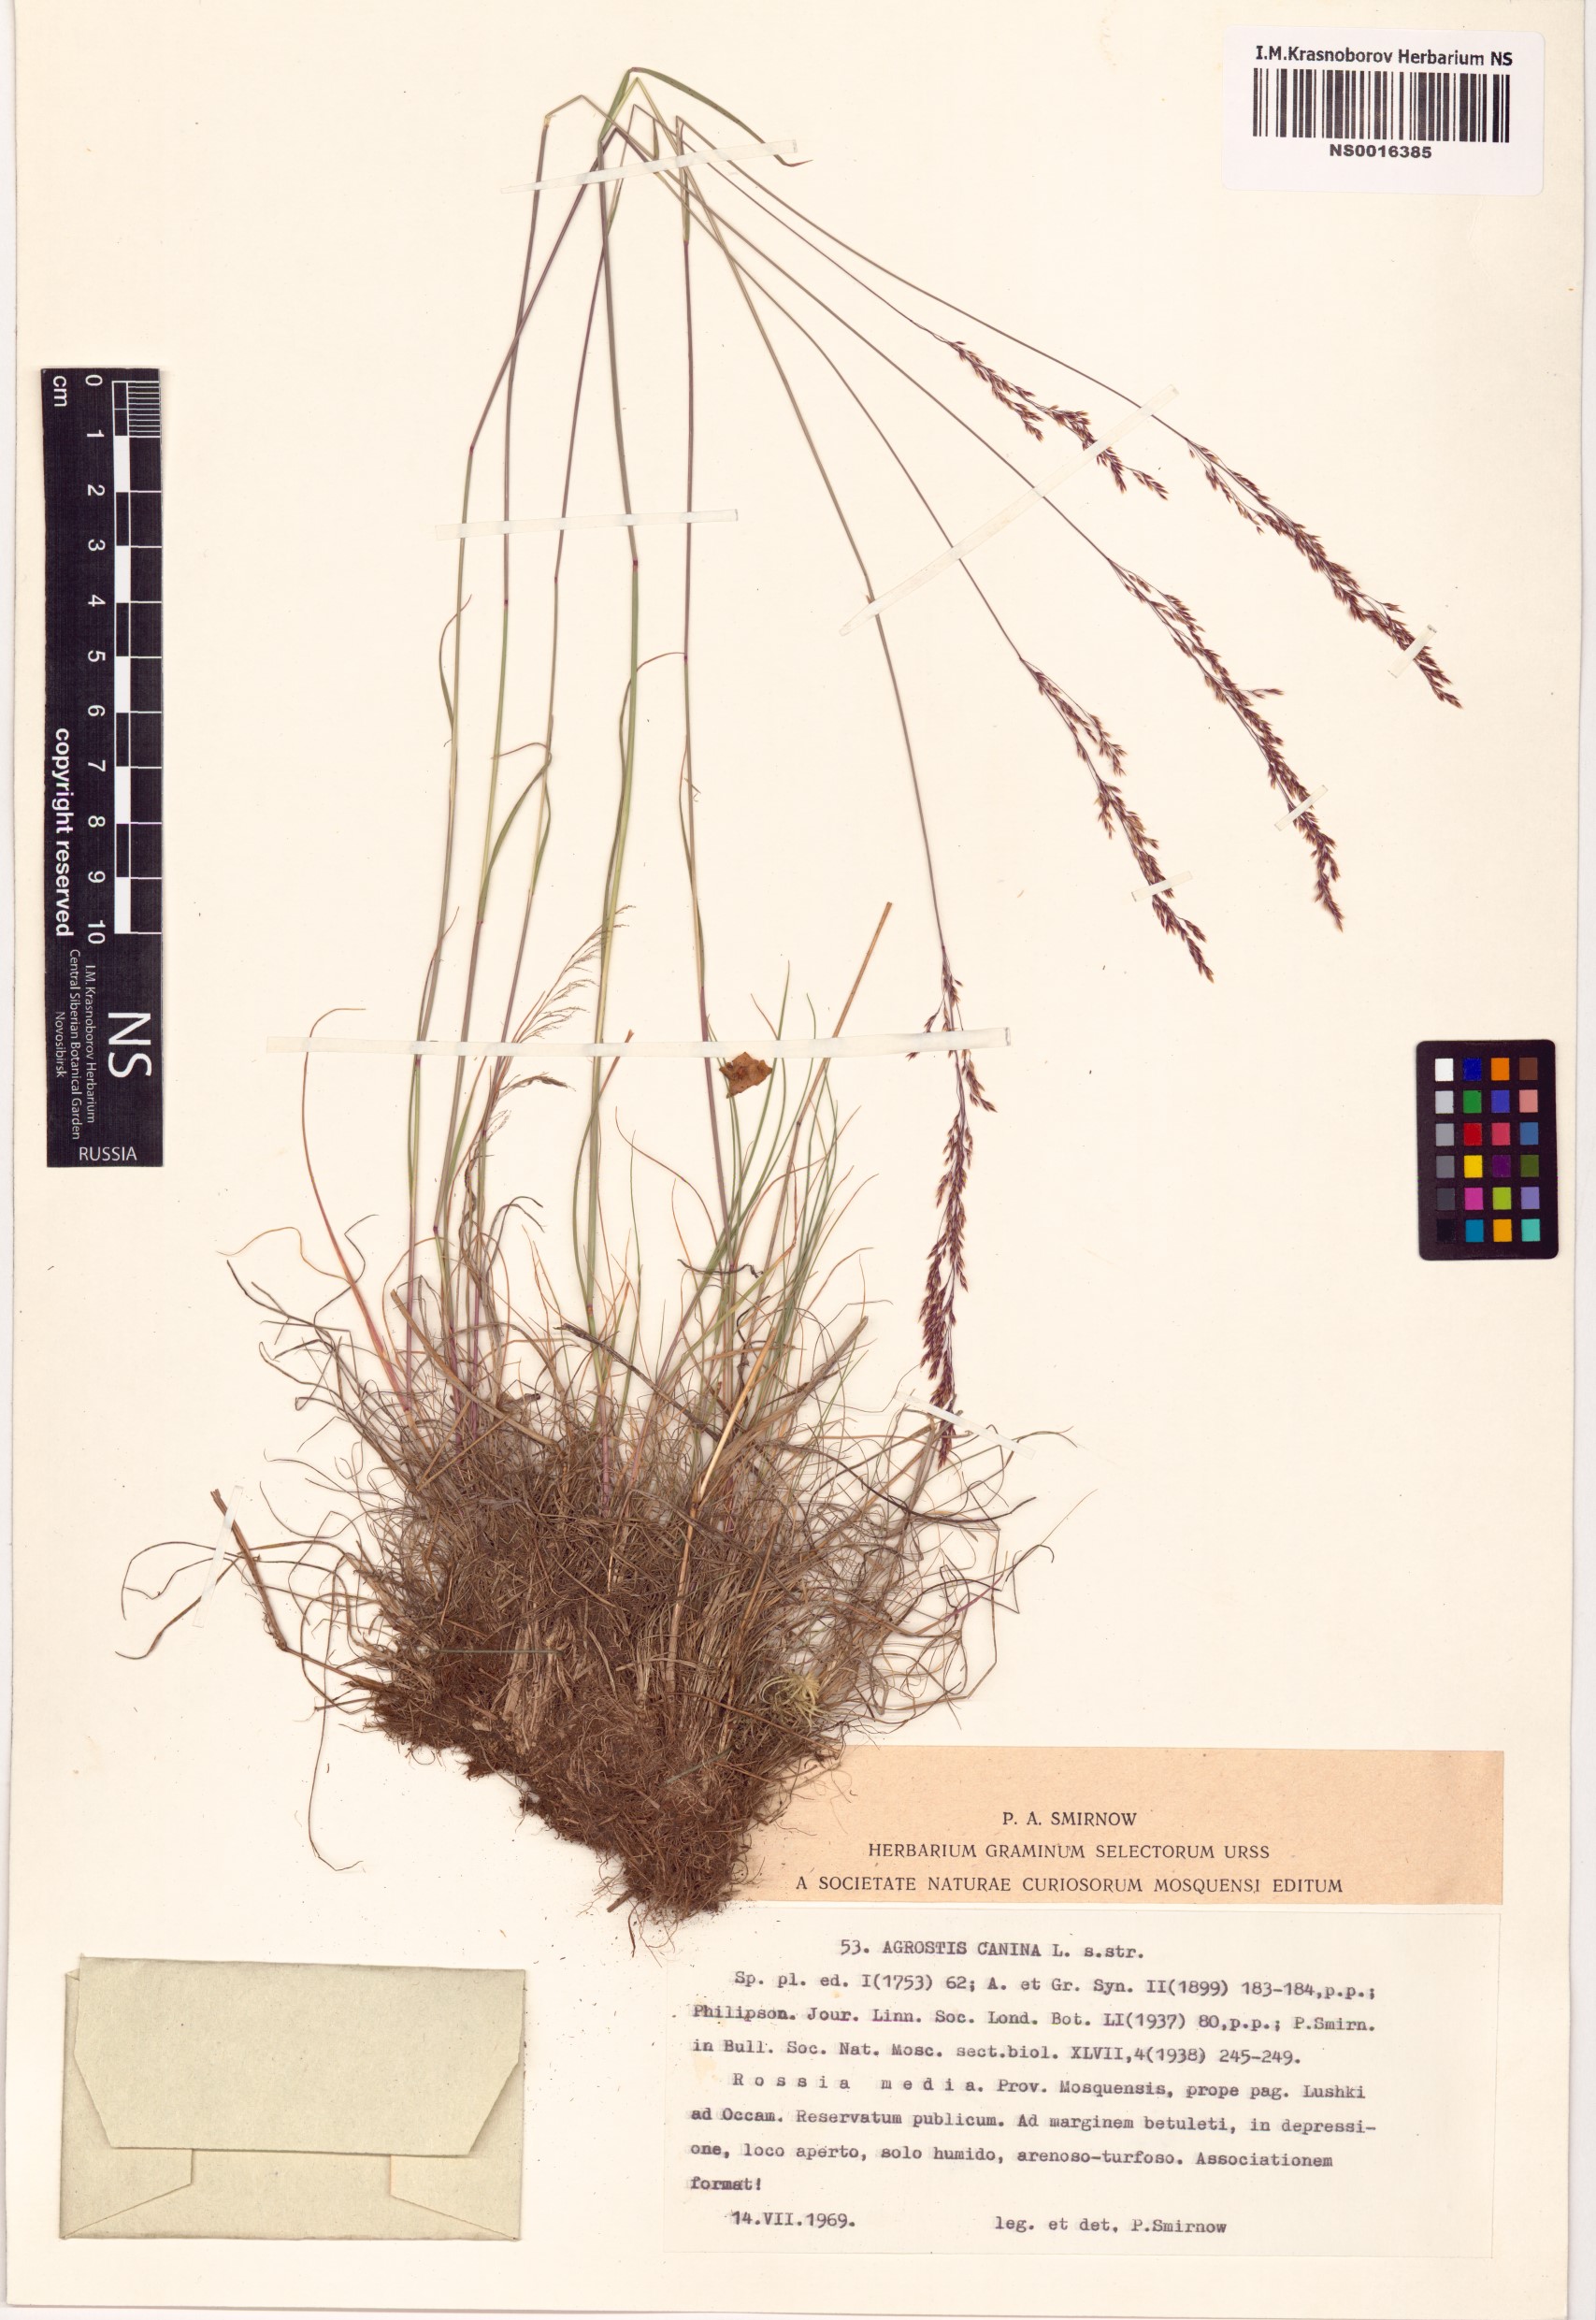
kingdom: Plantae
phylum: Tracheophyta
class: Liliopsida
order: Poales
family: Poaceae
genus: Agrostis
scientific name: Agrostis canina
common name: Velvet bent
